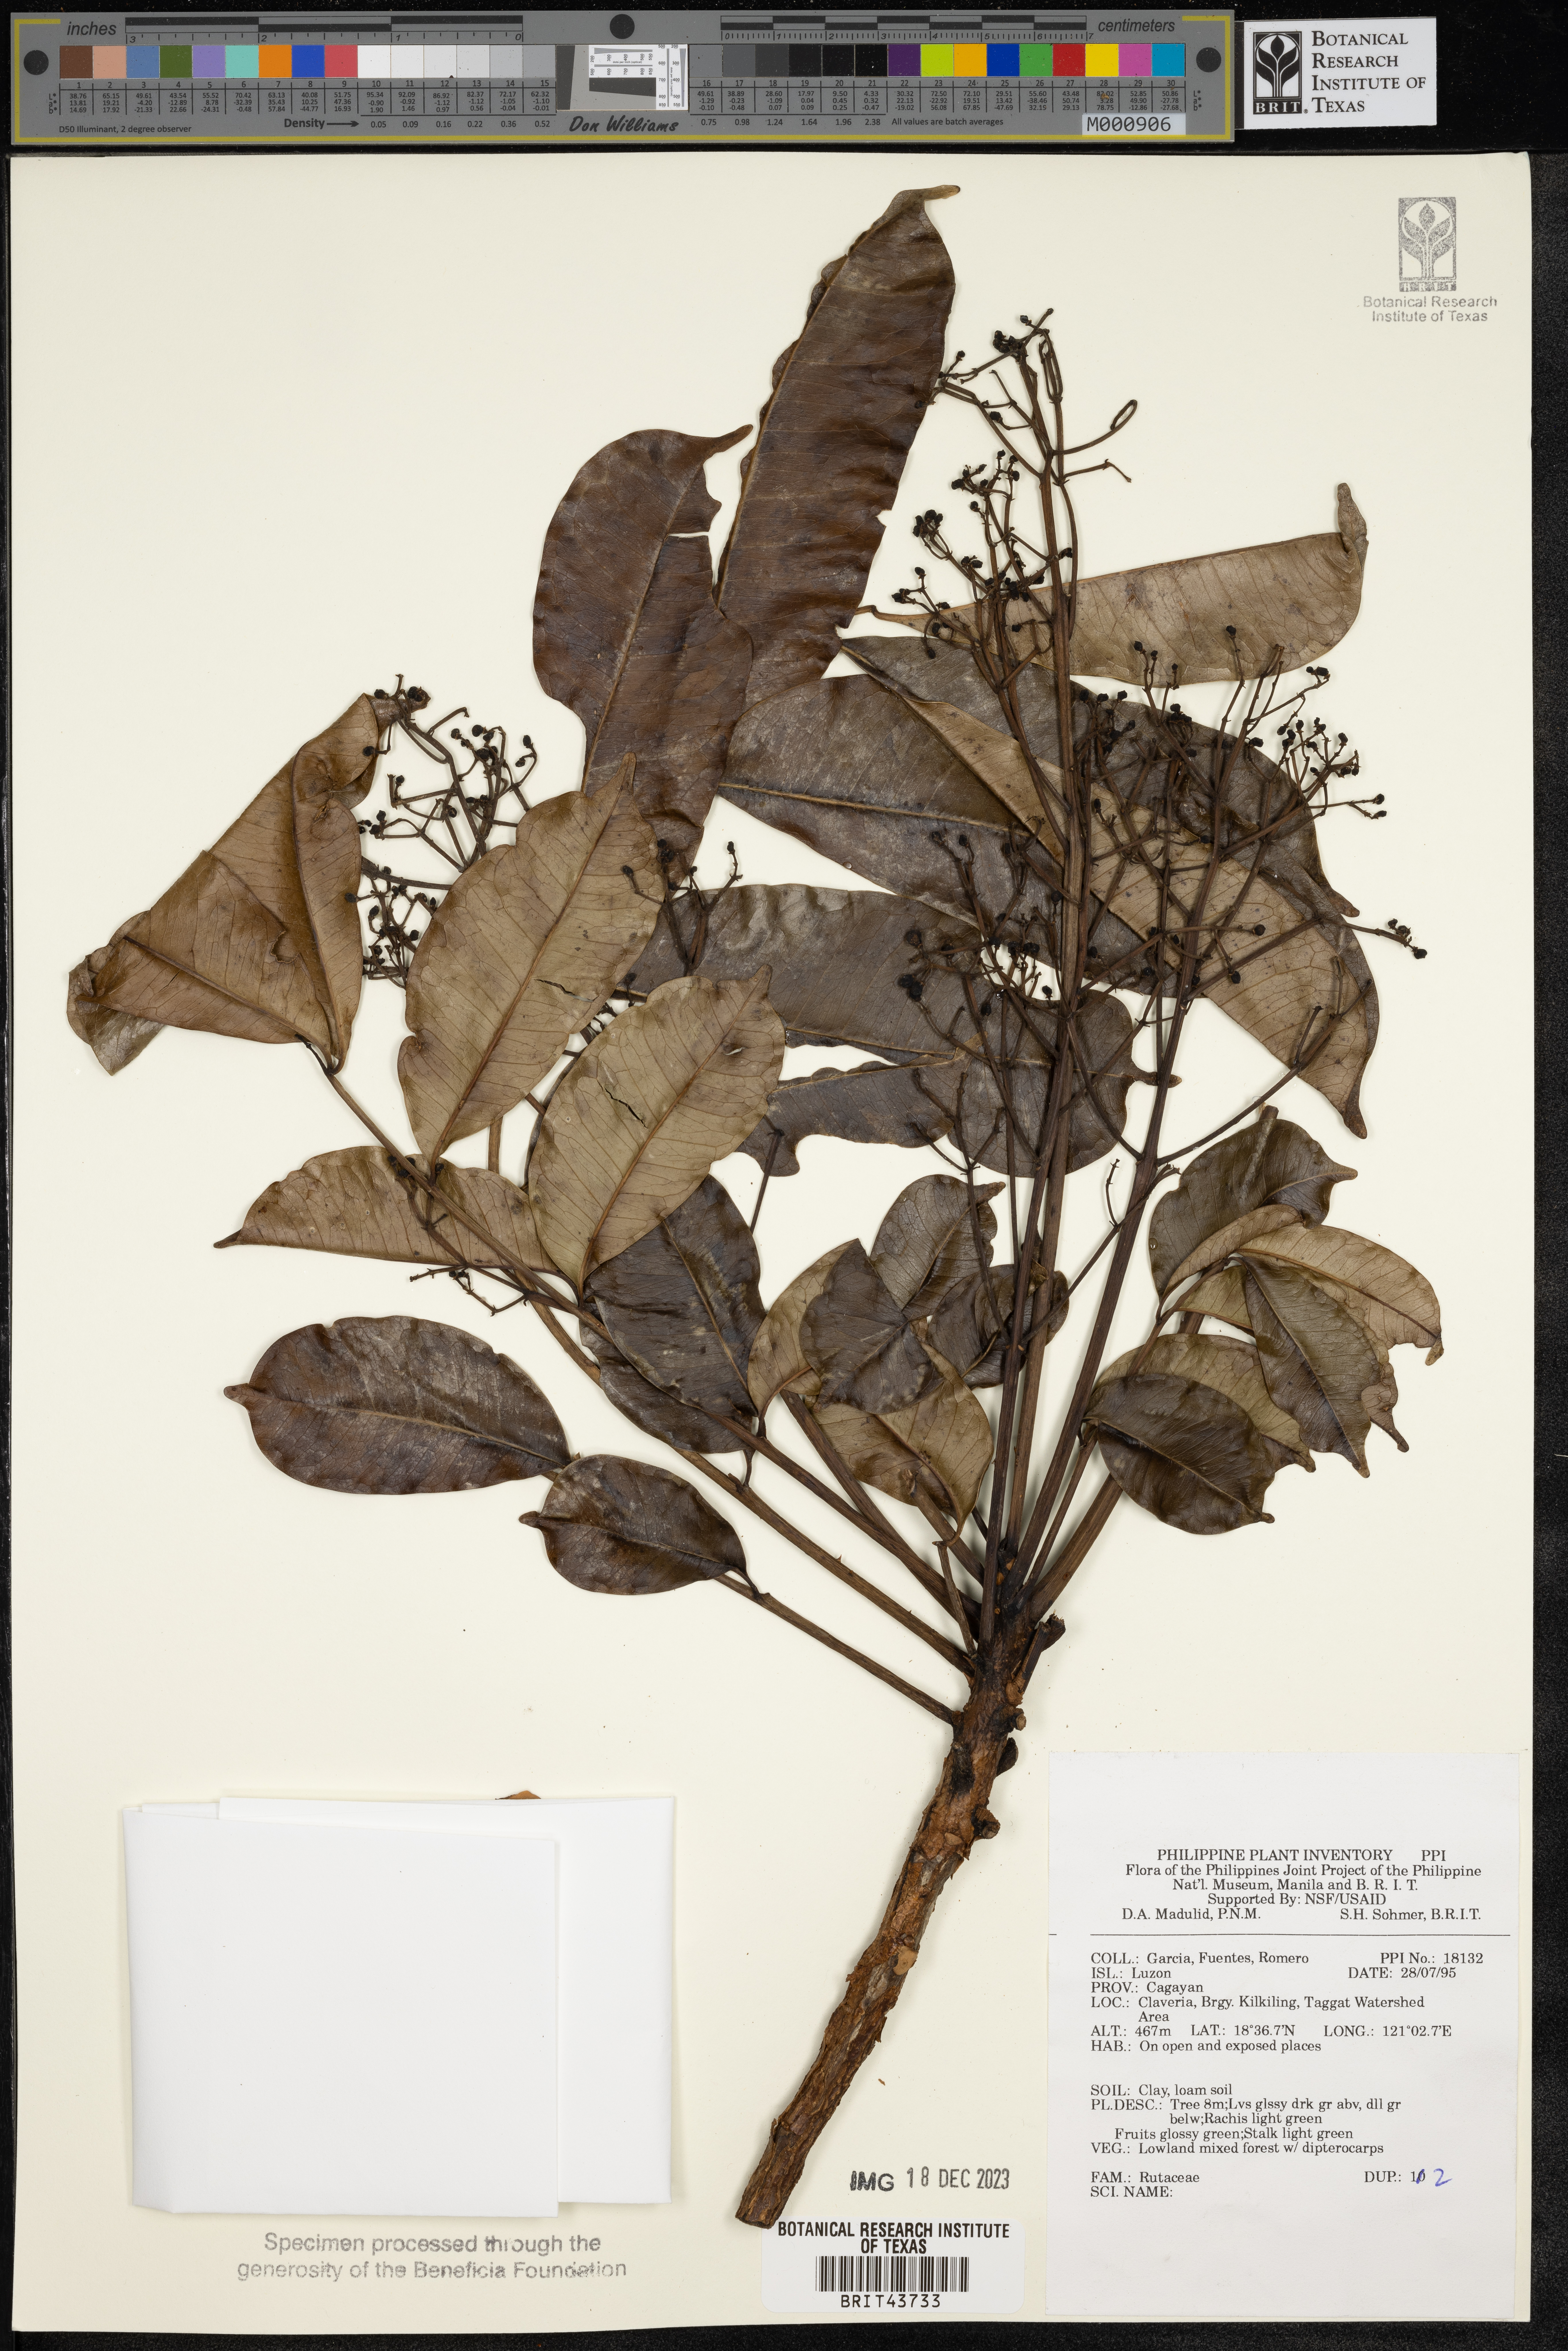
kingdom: Plantae
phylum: Tracheophyta
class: Magnoliopsida
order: Sapindales
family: Rutaceae
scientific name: Rutaceae
